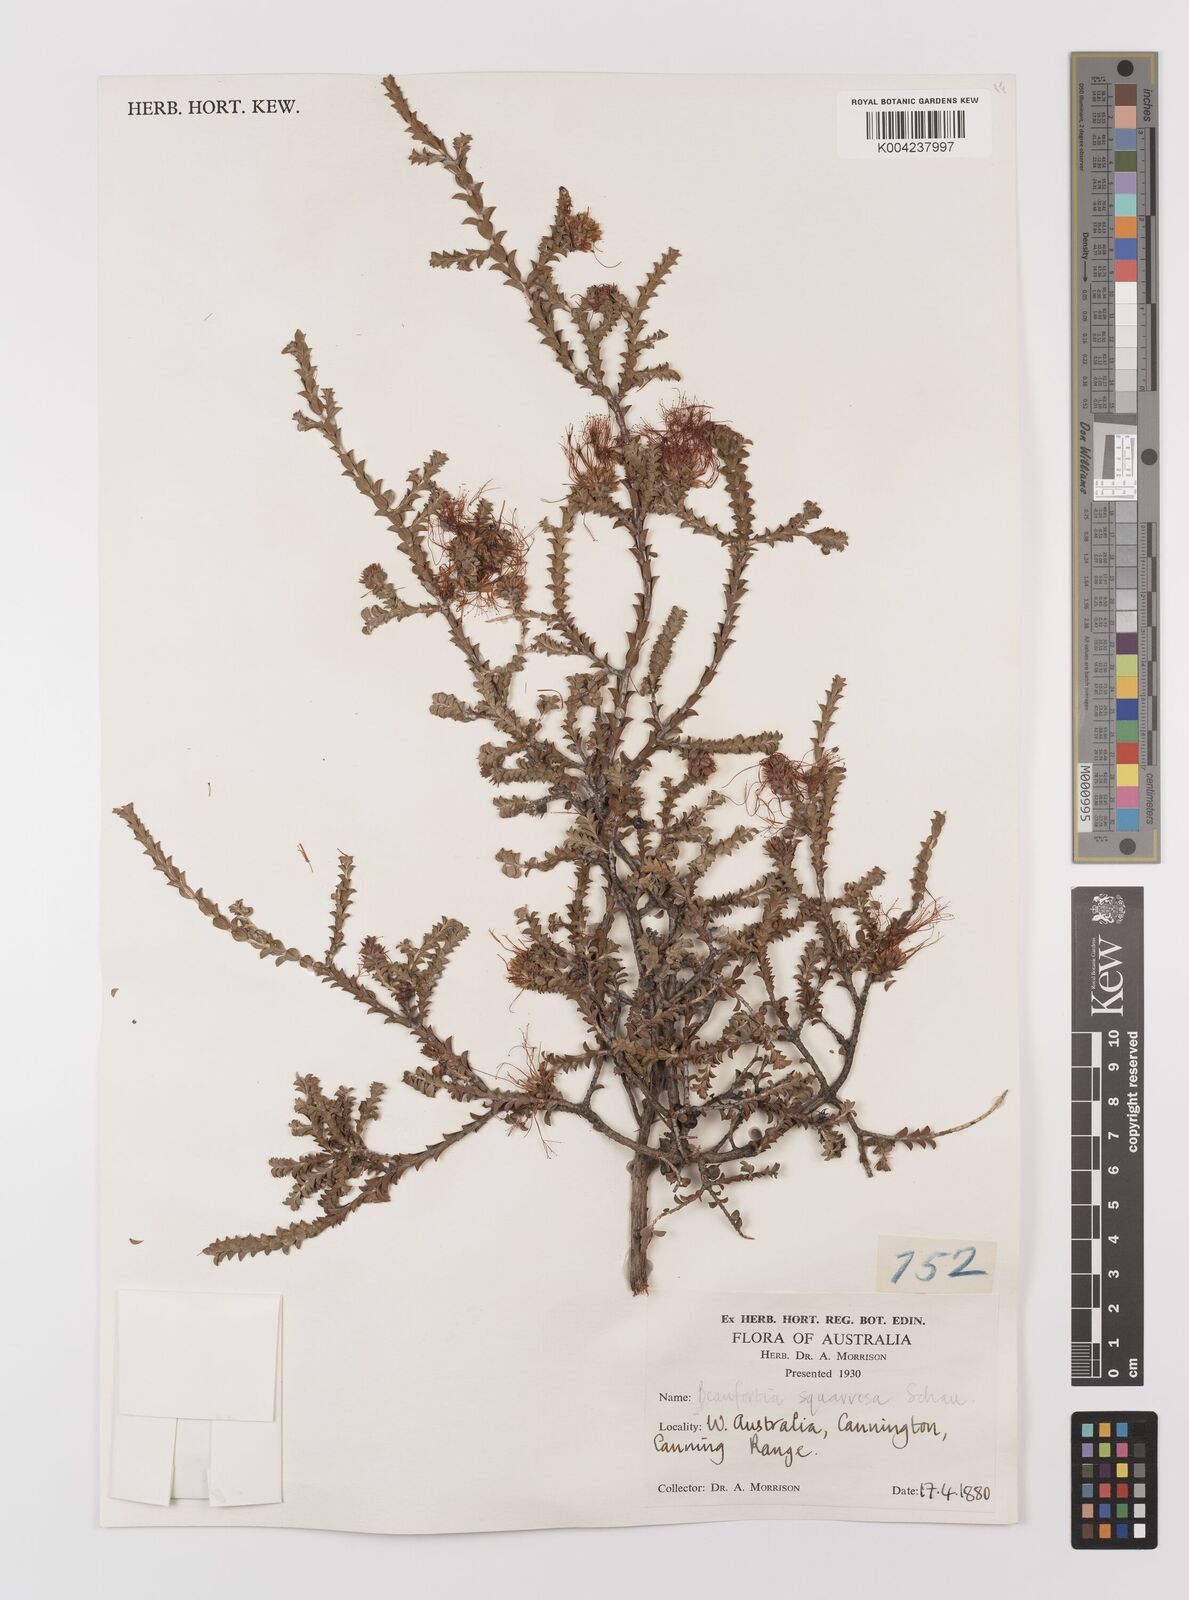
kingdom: Plantae
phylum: Tracheophyta
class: Magnoliopsida
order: Myrtales
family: Myrtaceae
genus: Melaleuca
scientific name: Melaleuca pulcherrima
